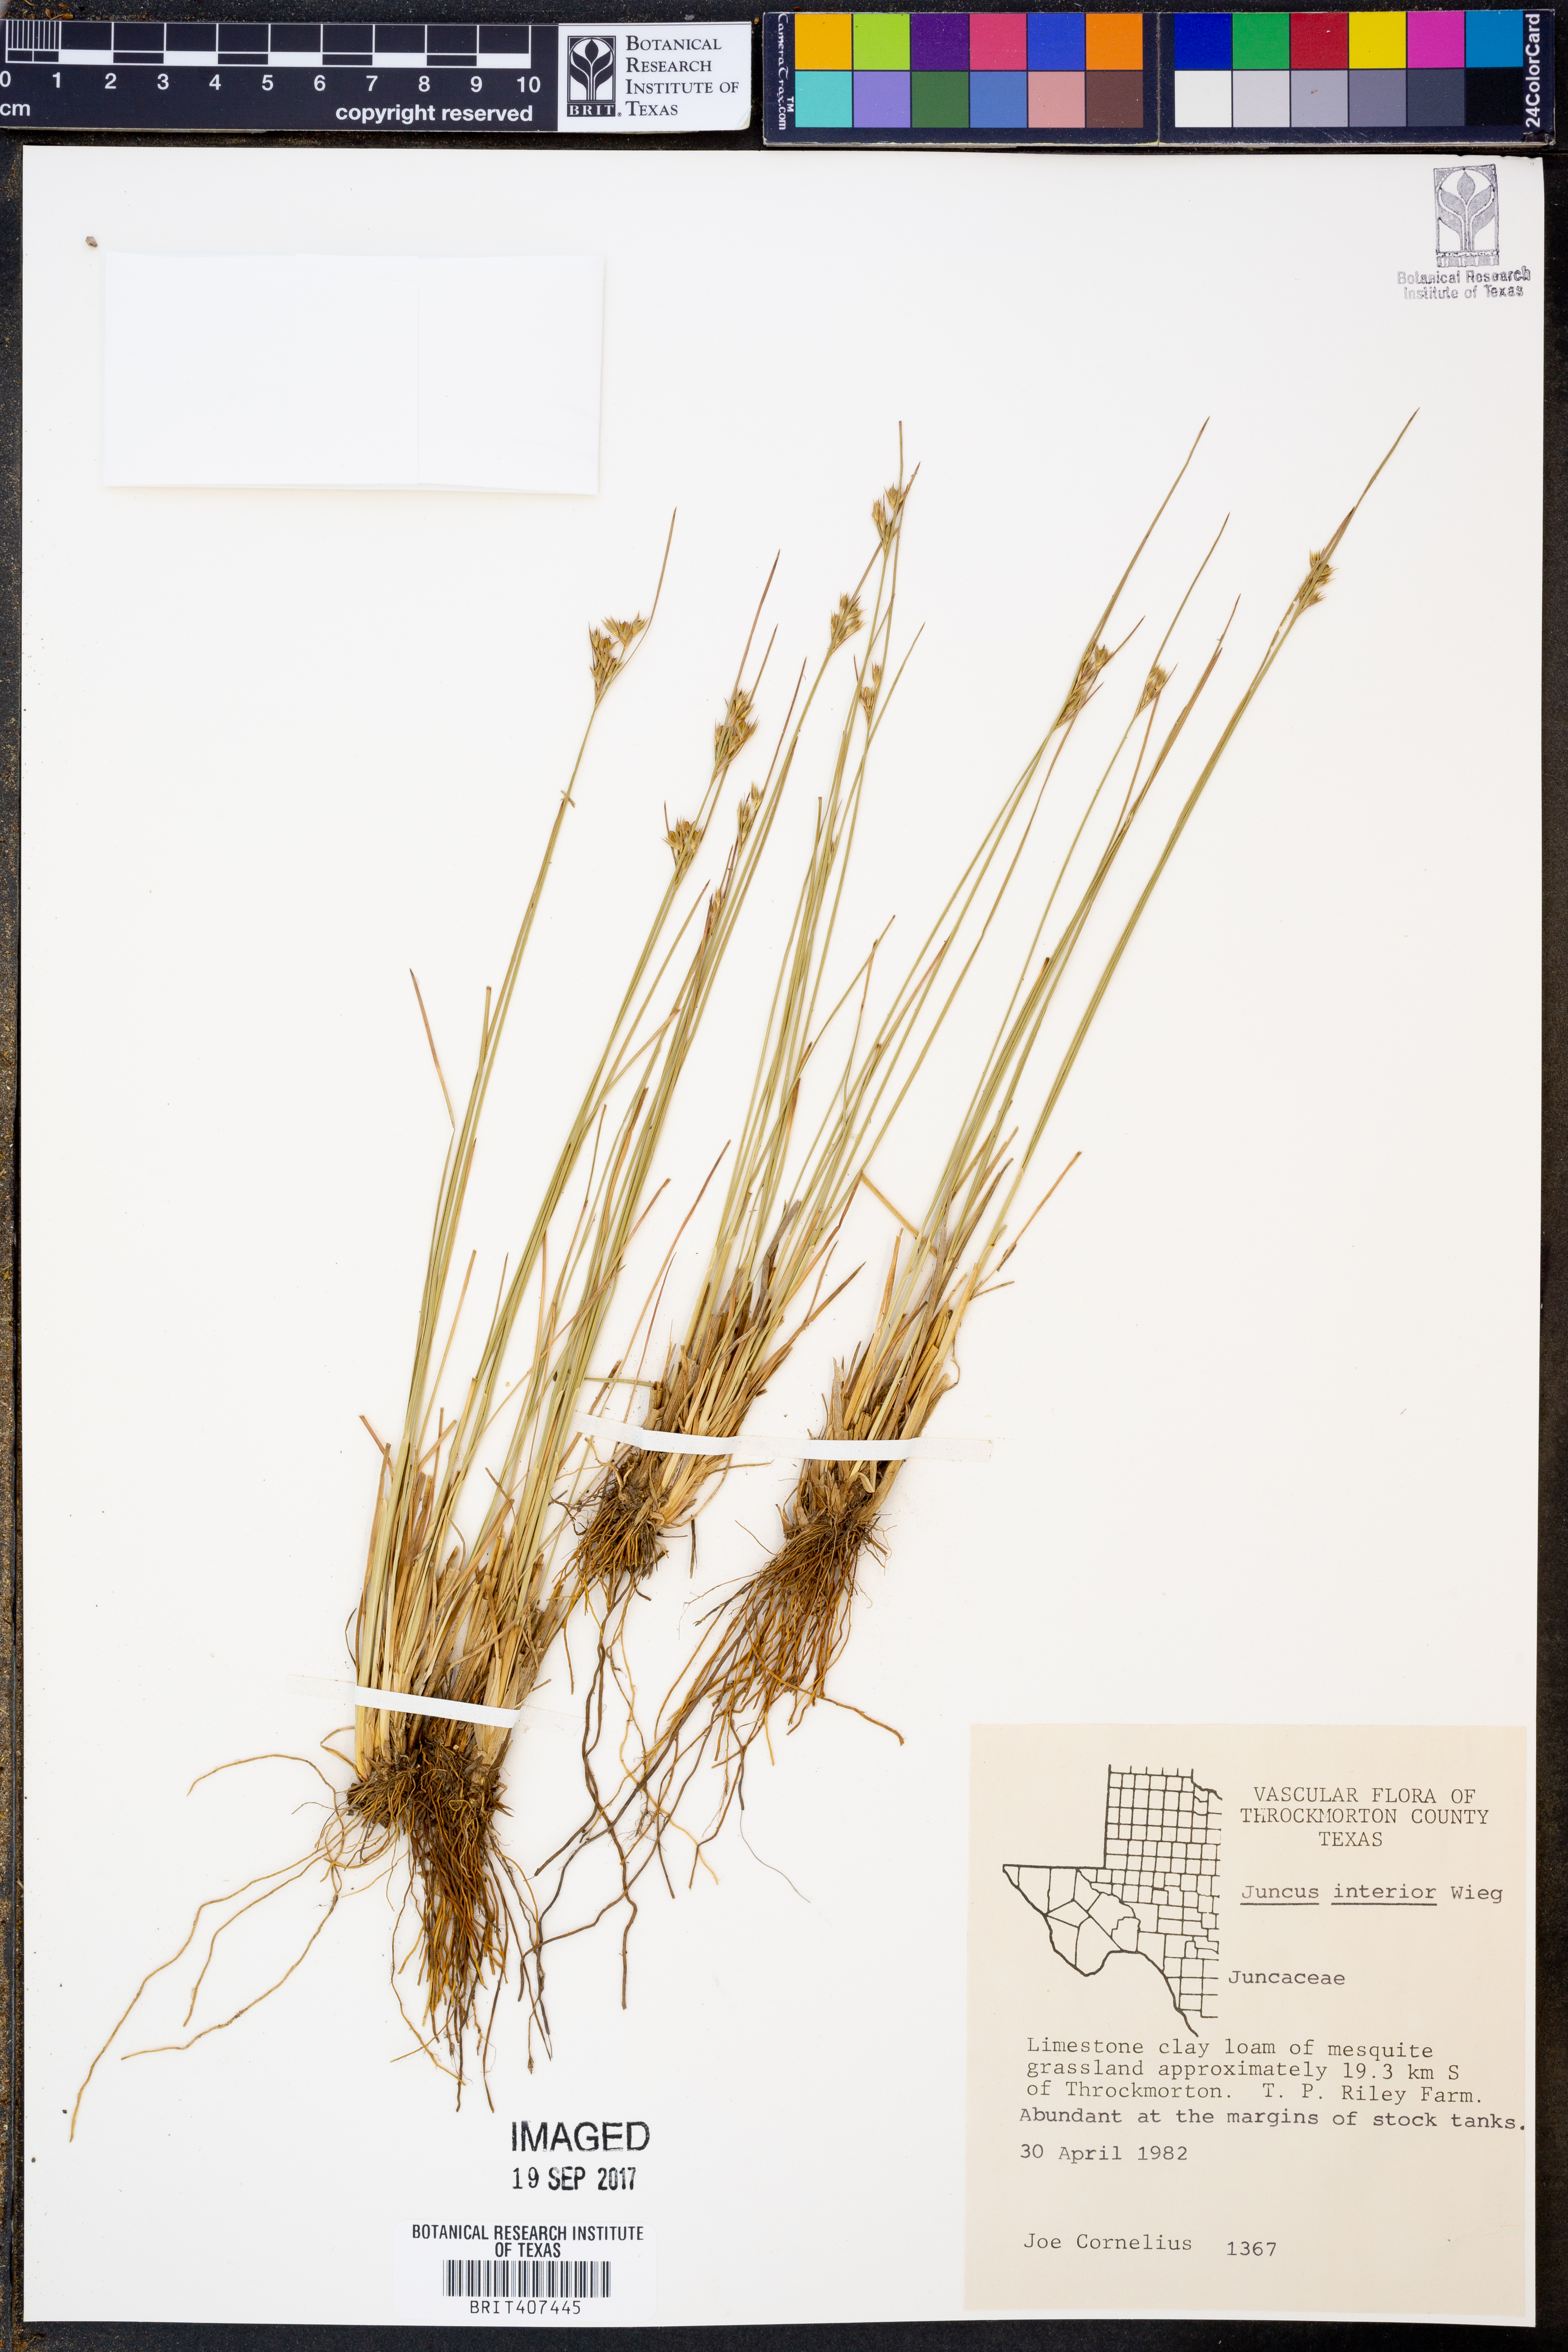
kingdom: Plantae
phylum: Tracheophyta
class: Liliopsida
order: Poales
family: Juncaceae
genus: Juncus
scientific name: Juncus interior
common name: Interior rush
